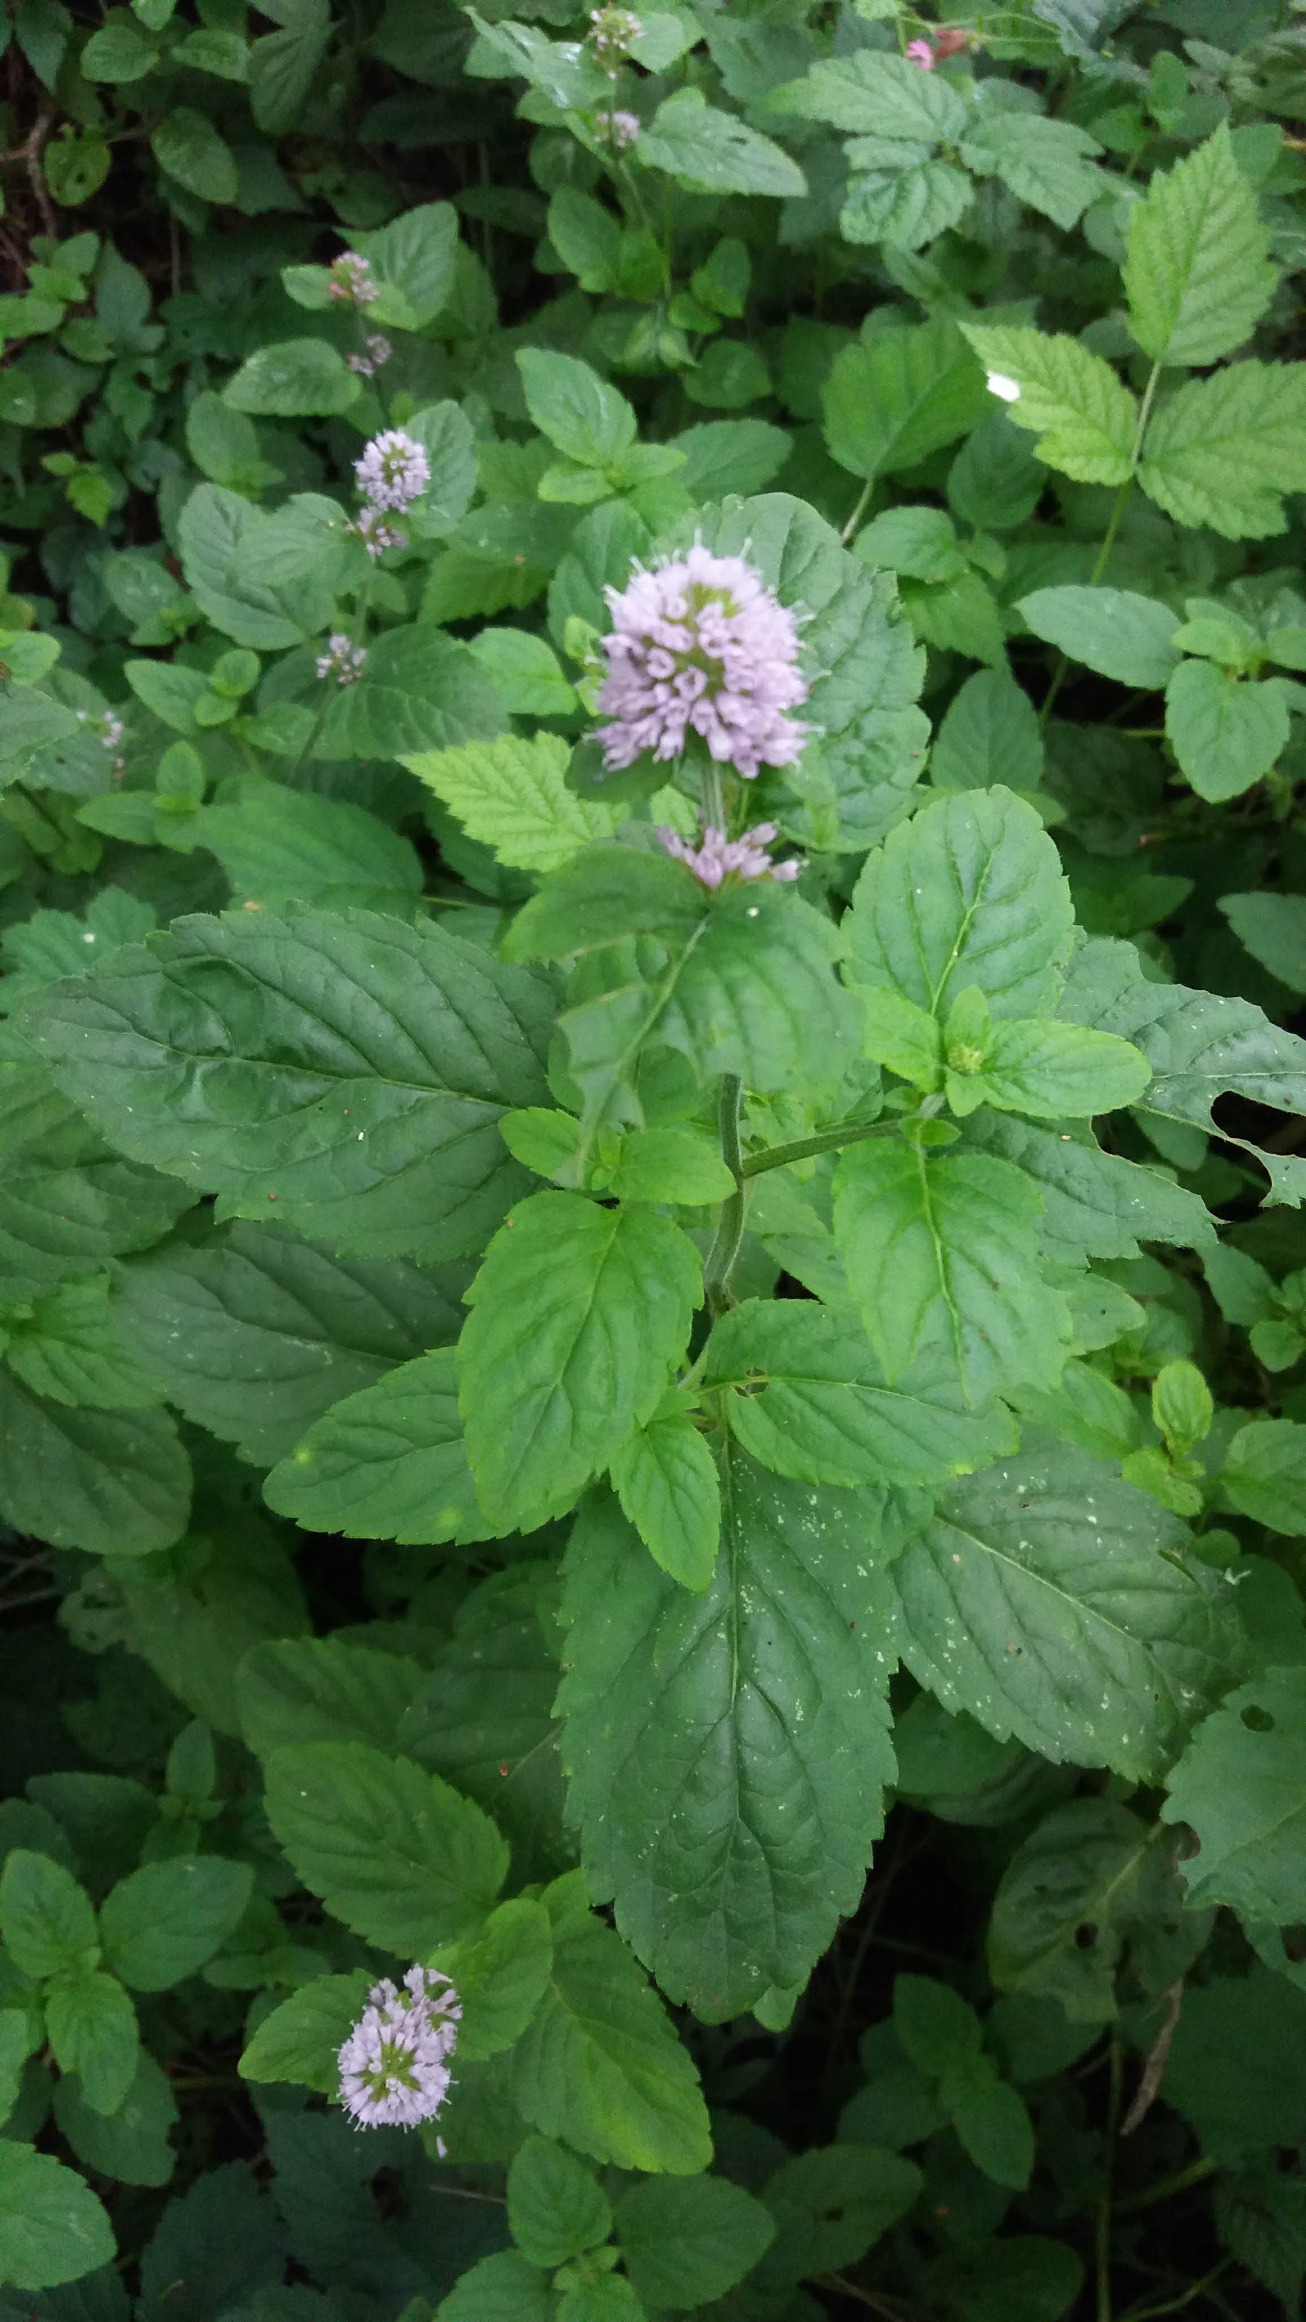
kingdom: Plantae
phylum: Tracheophyta
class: Magnoliopsida
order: Lamiales
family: Lamiaceae
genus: Mentha
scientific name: Mentha aquatica
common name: Vand-mynte
